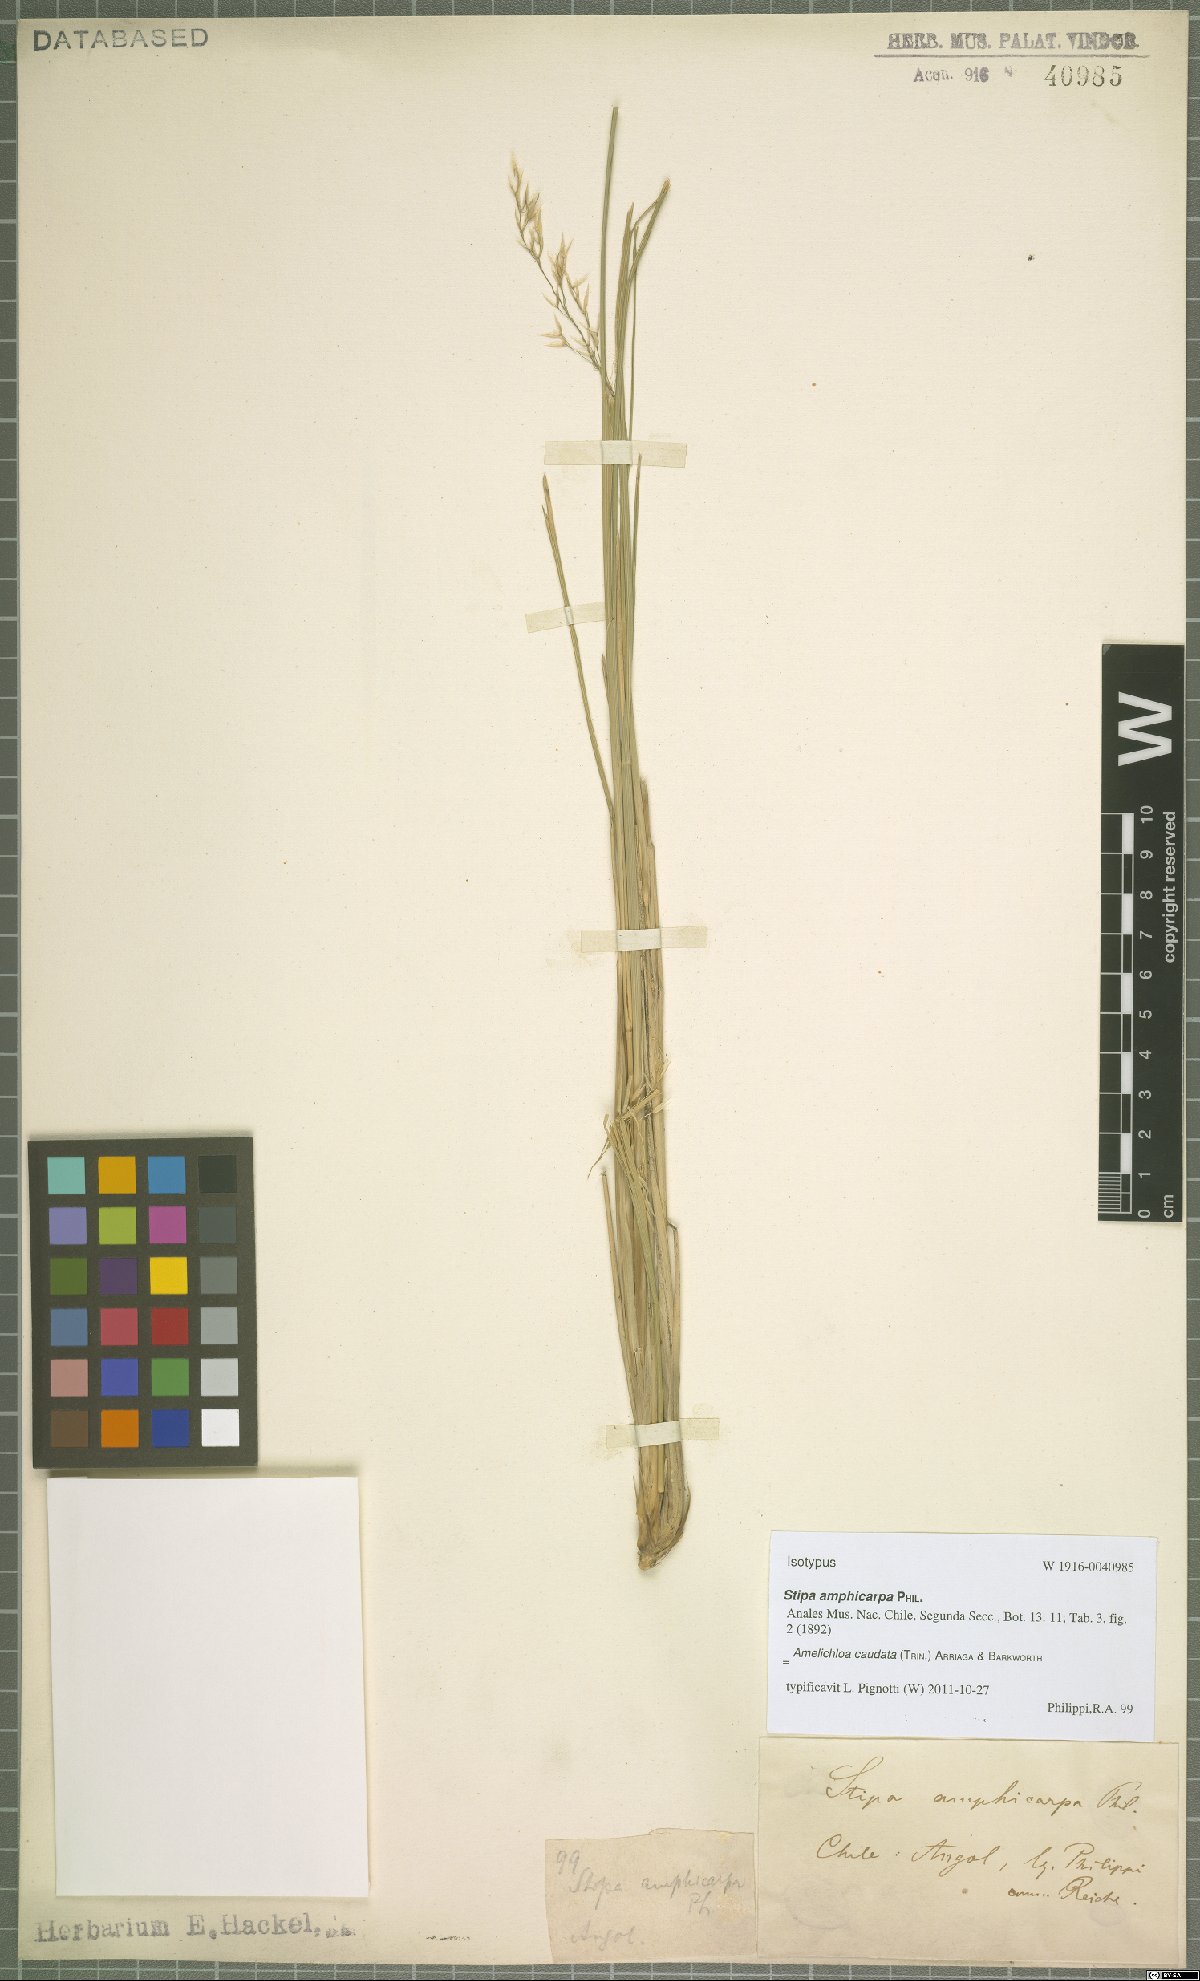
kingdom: Plantae
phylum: Tracheophyta
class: Liliopsida
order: Poales
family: Poaceae
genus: Amelichloa
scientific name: Amelichloa caudata
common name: Chilean ricegrass
